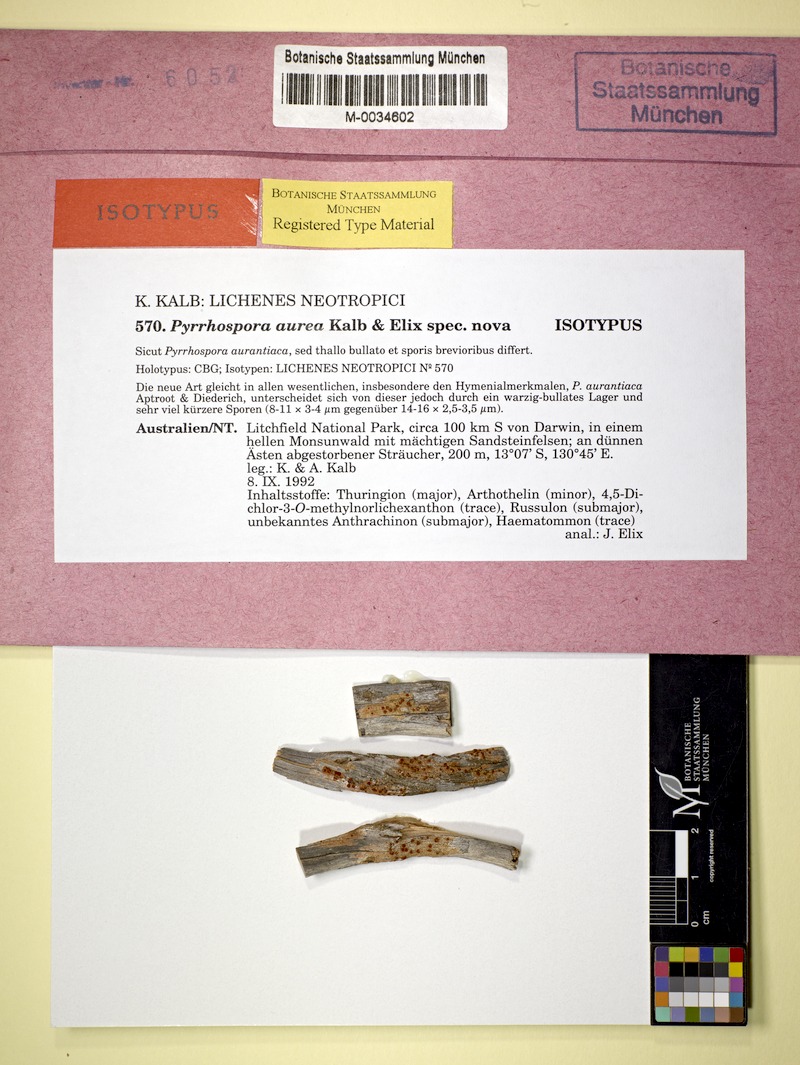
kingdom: Fungi
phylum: Ascomycota
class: Lecanoromycetes
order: Lecanorales
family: Ramboldiaceae
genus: Ramboldia
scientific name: Ramboldia aurea
